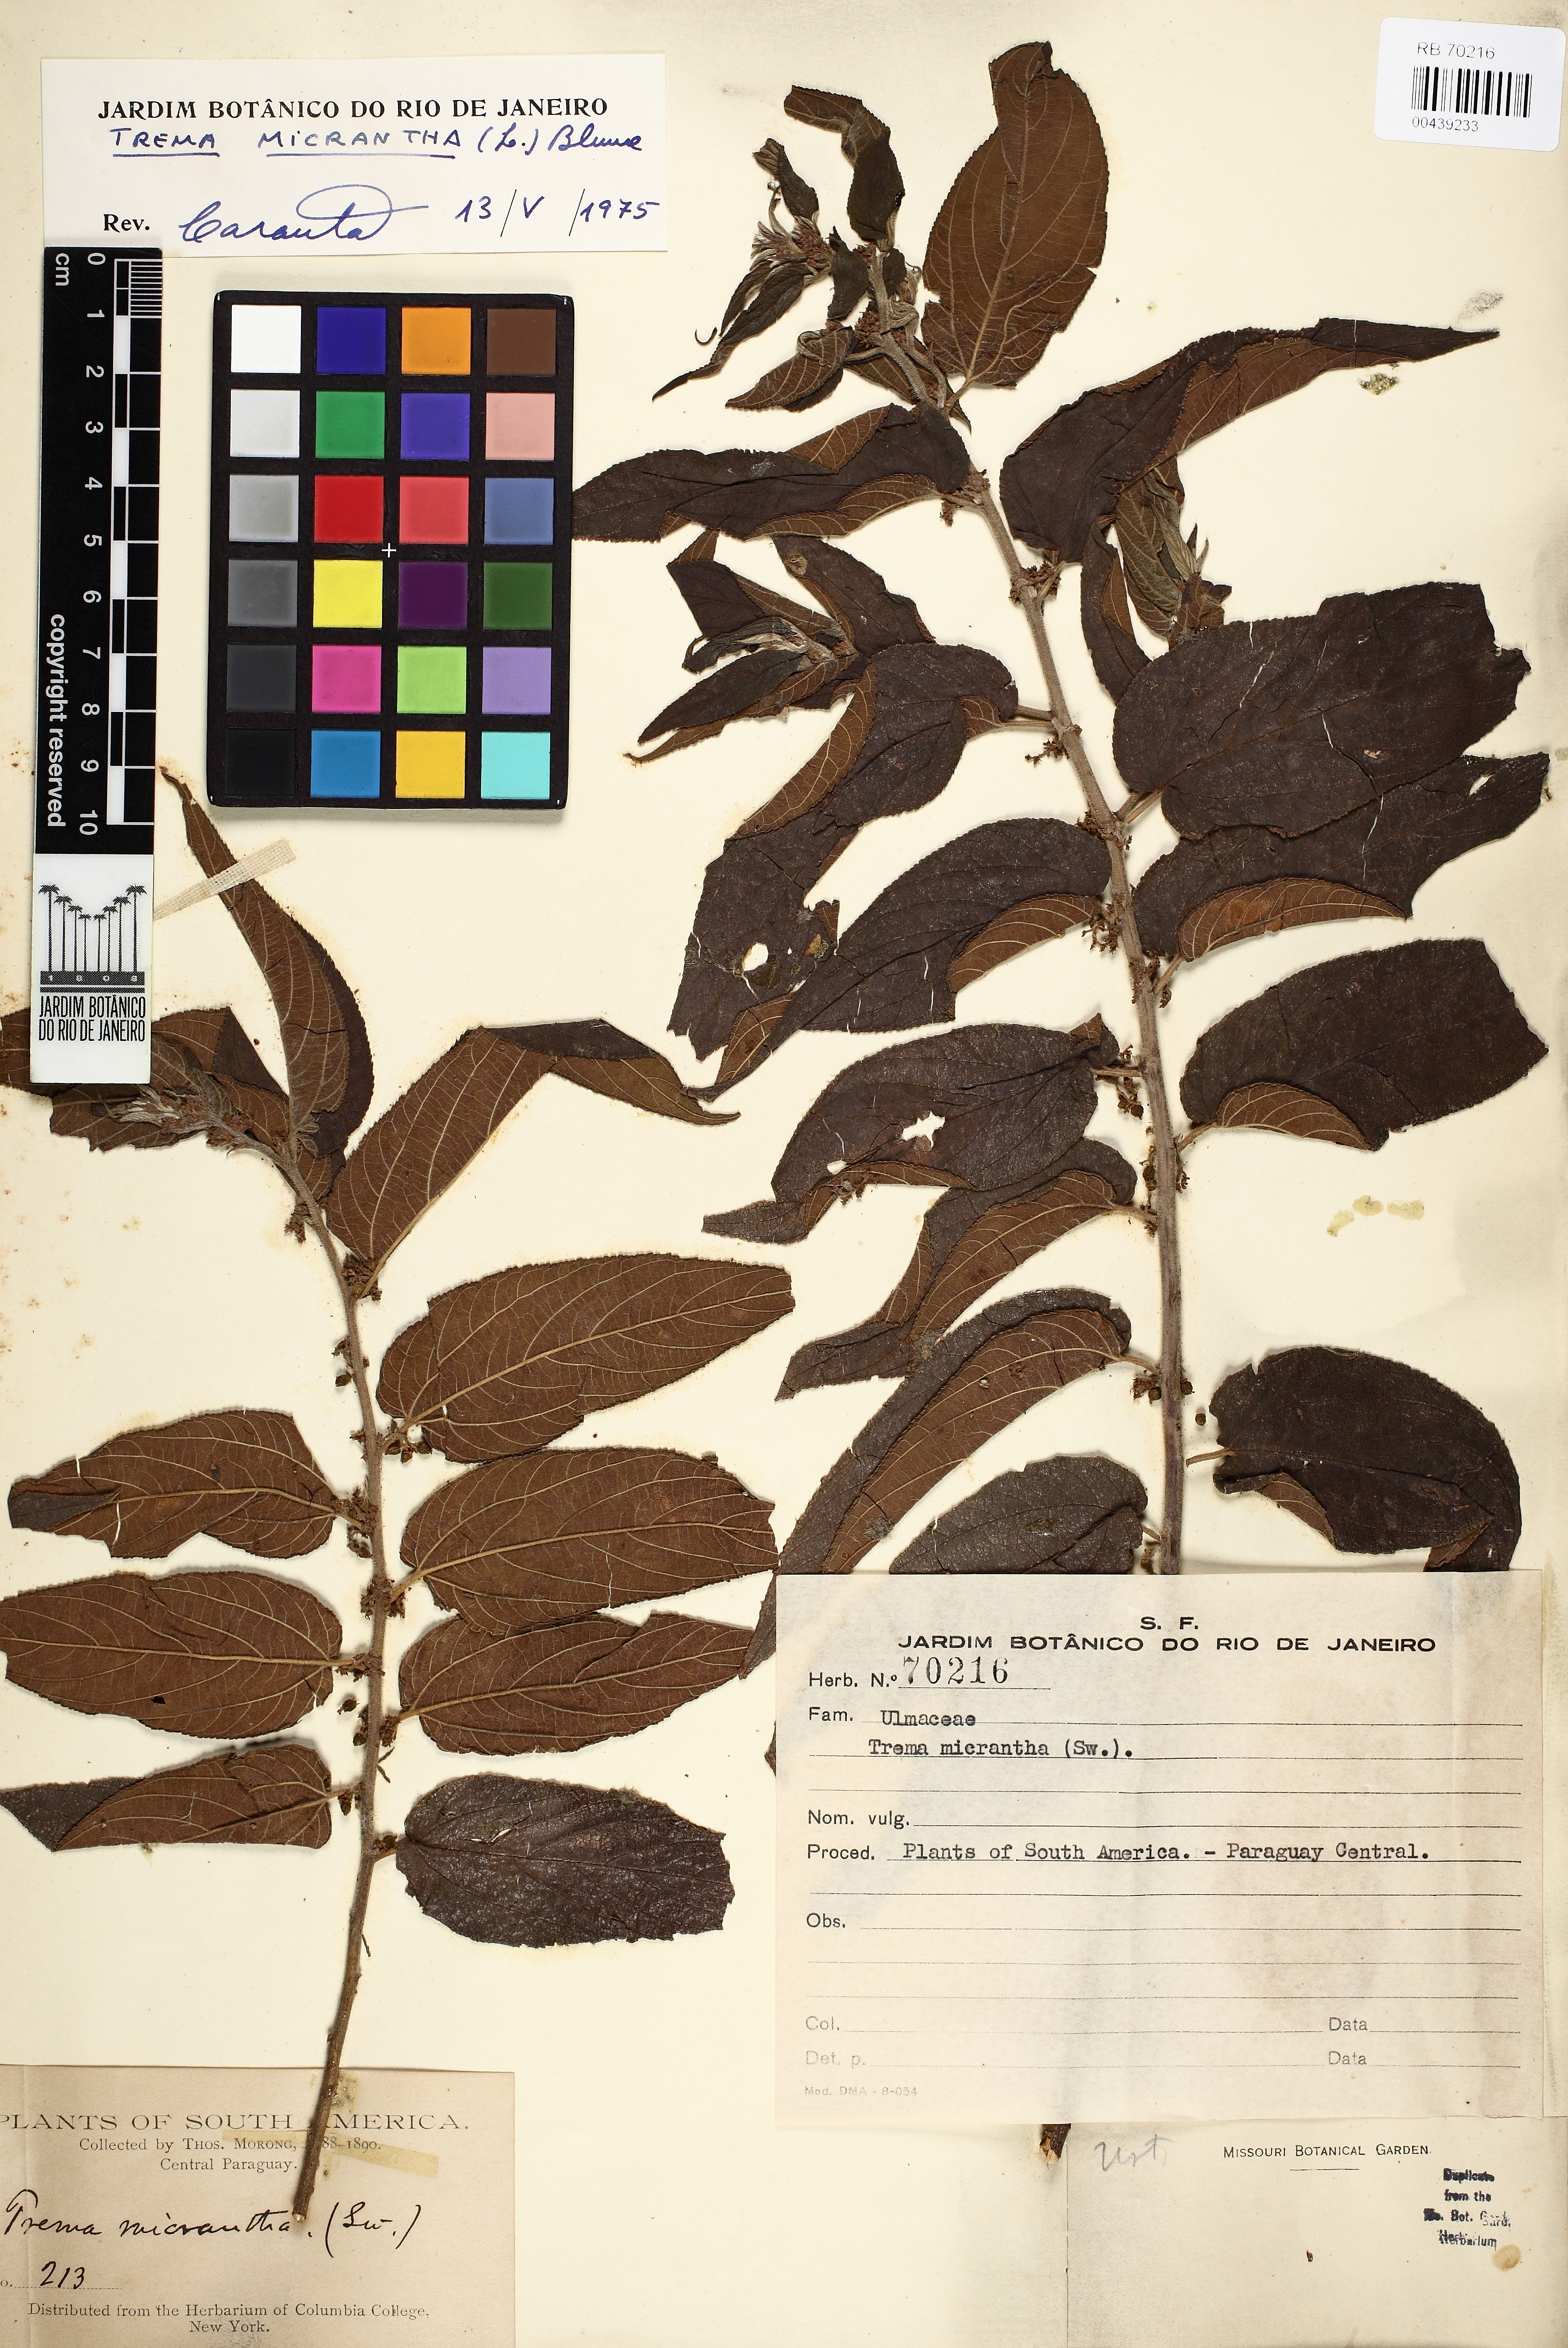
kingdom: Plantae
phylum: Tracheophyta
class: Magnoliopsida
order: Rosales
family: Cannabaceae
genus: Trema
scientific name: Trema micranthum
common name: Jamaican nettletree
